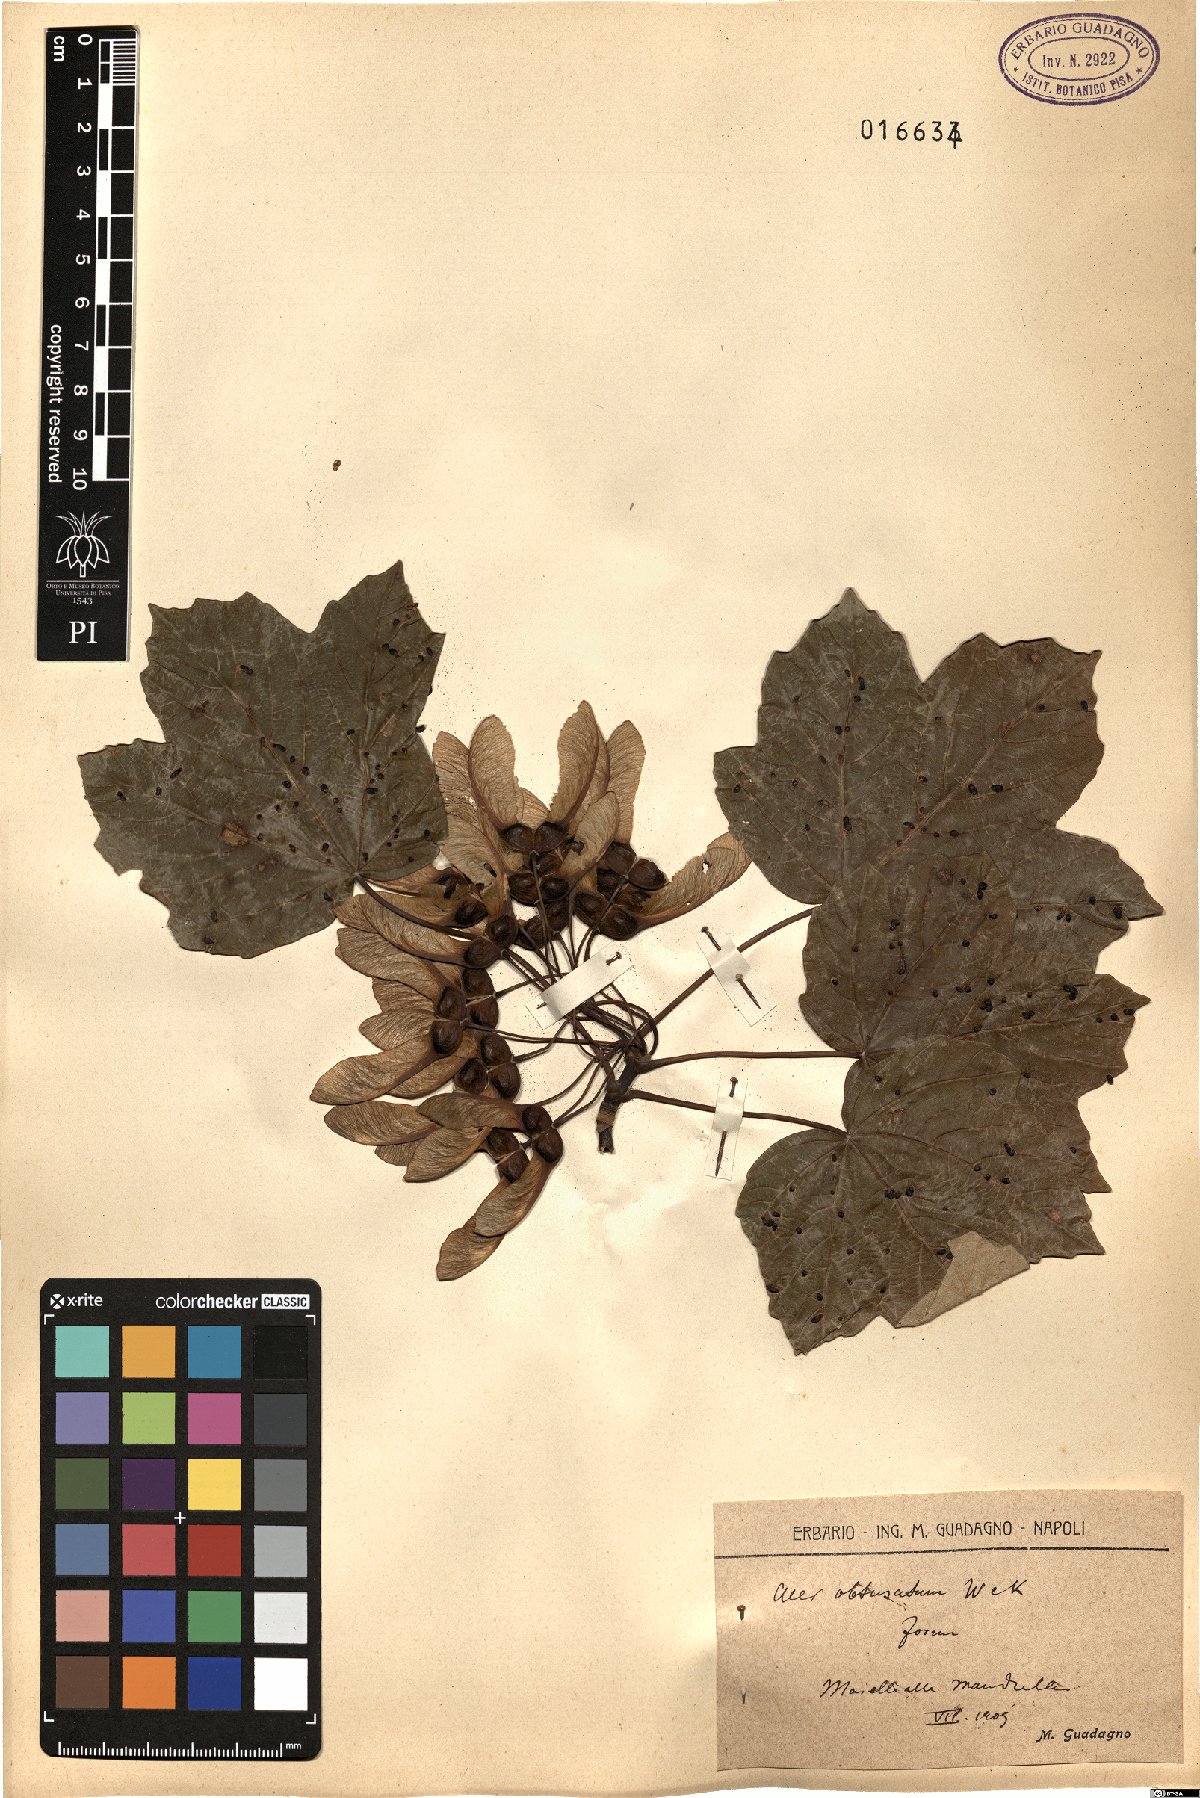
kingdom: Plantae
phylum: Tracheophyta
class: Magnoliopsida
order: Sapindales
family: Sapindaceae
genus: Acer
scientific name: Acer obtusatum
